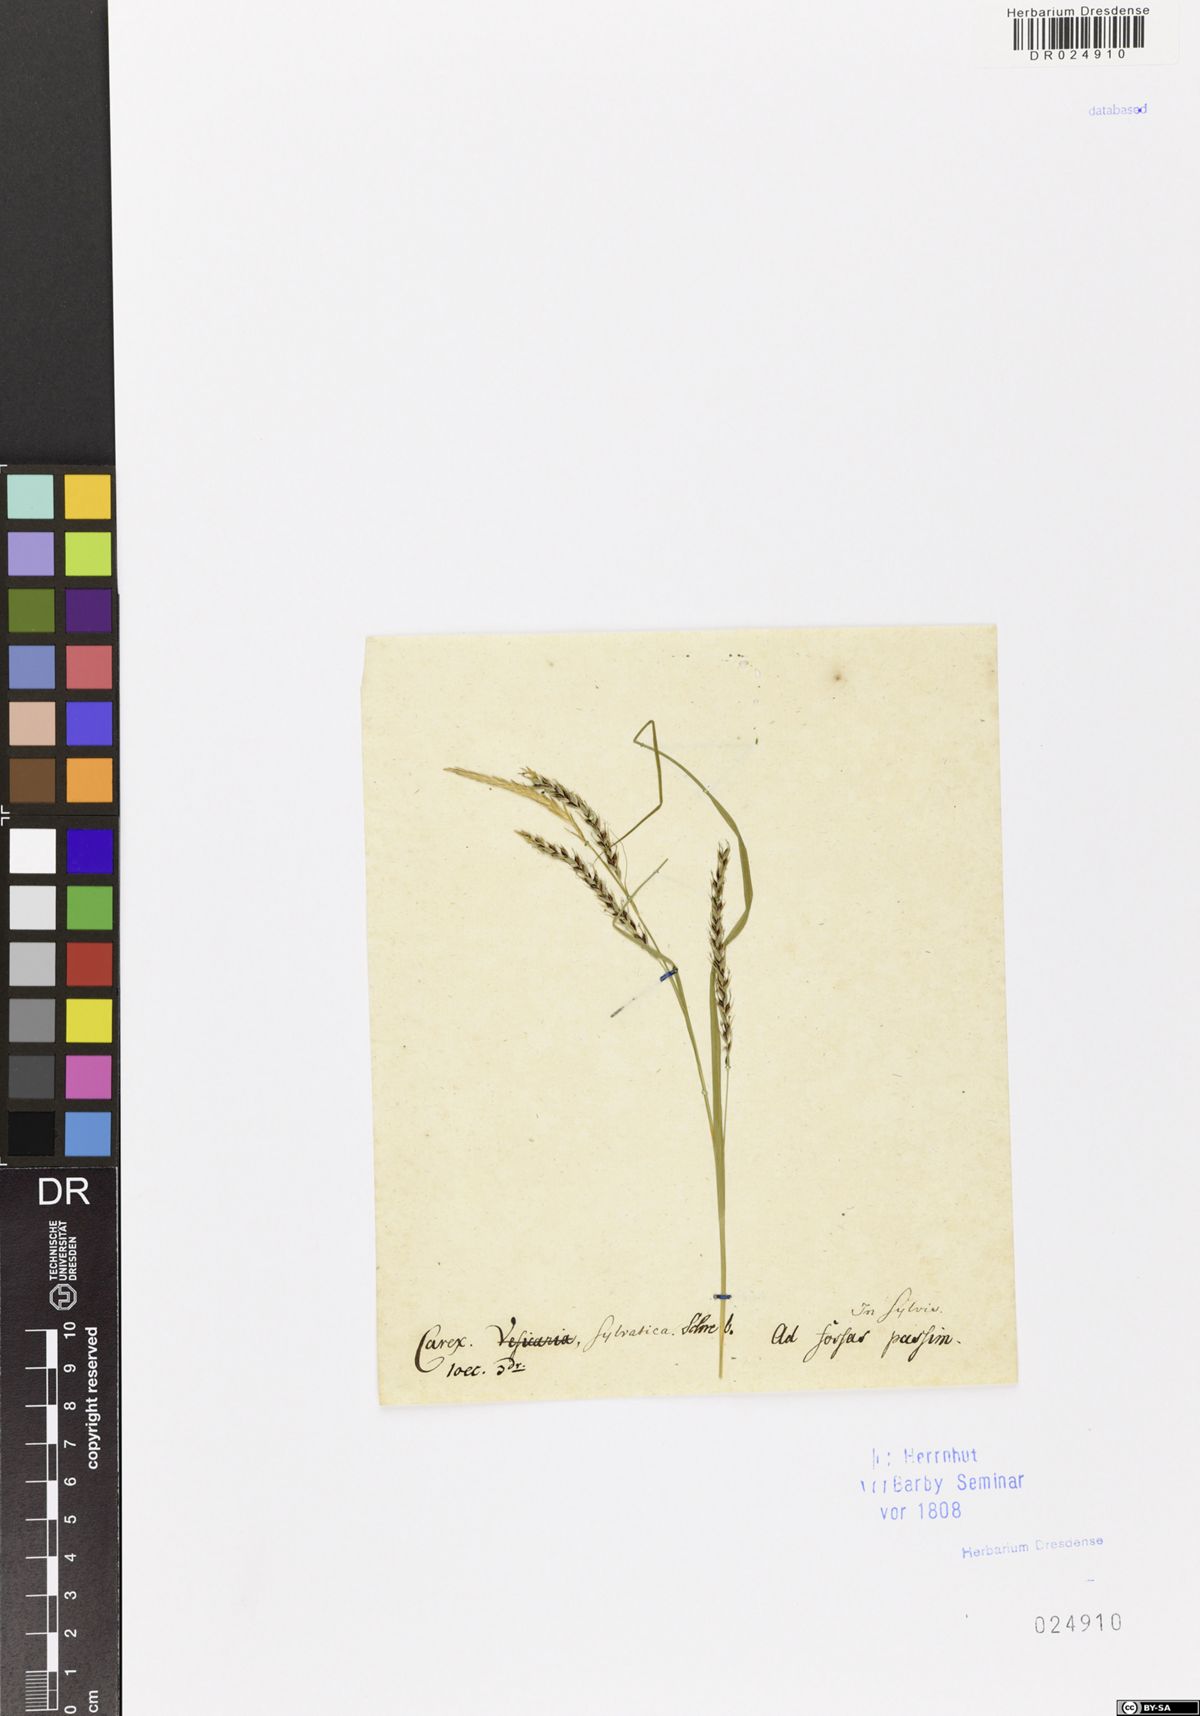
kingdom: Plantae
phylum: Tracheophyta
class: Liliopsida
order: Poales
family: Cyperaceae
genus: Carex
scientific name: Carex sylvatica
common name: Wood-sedge
